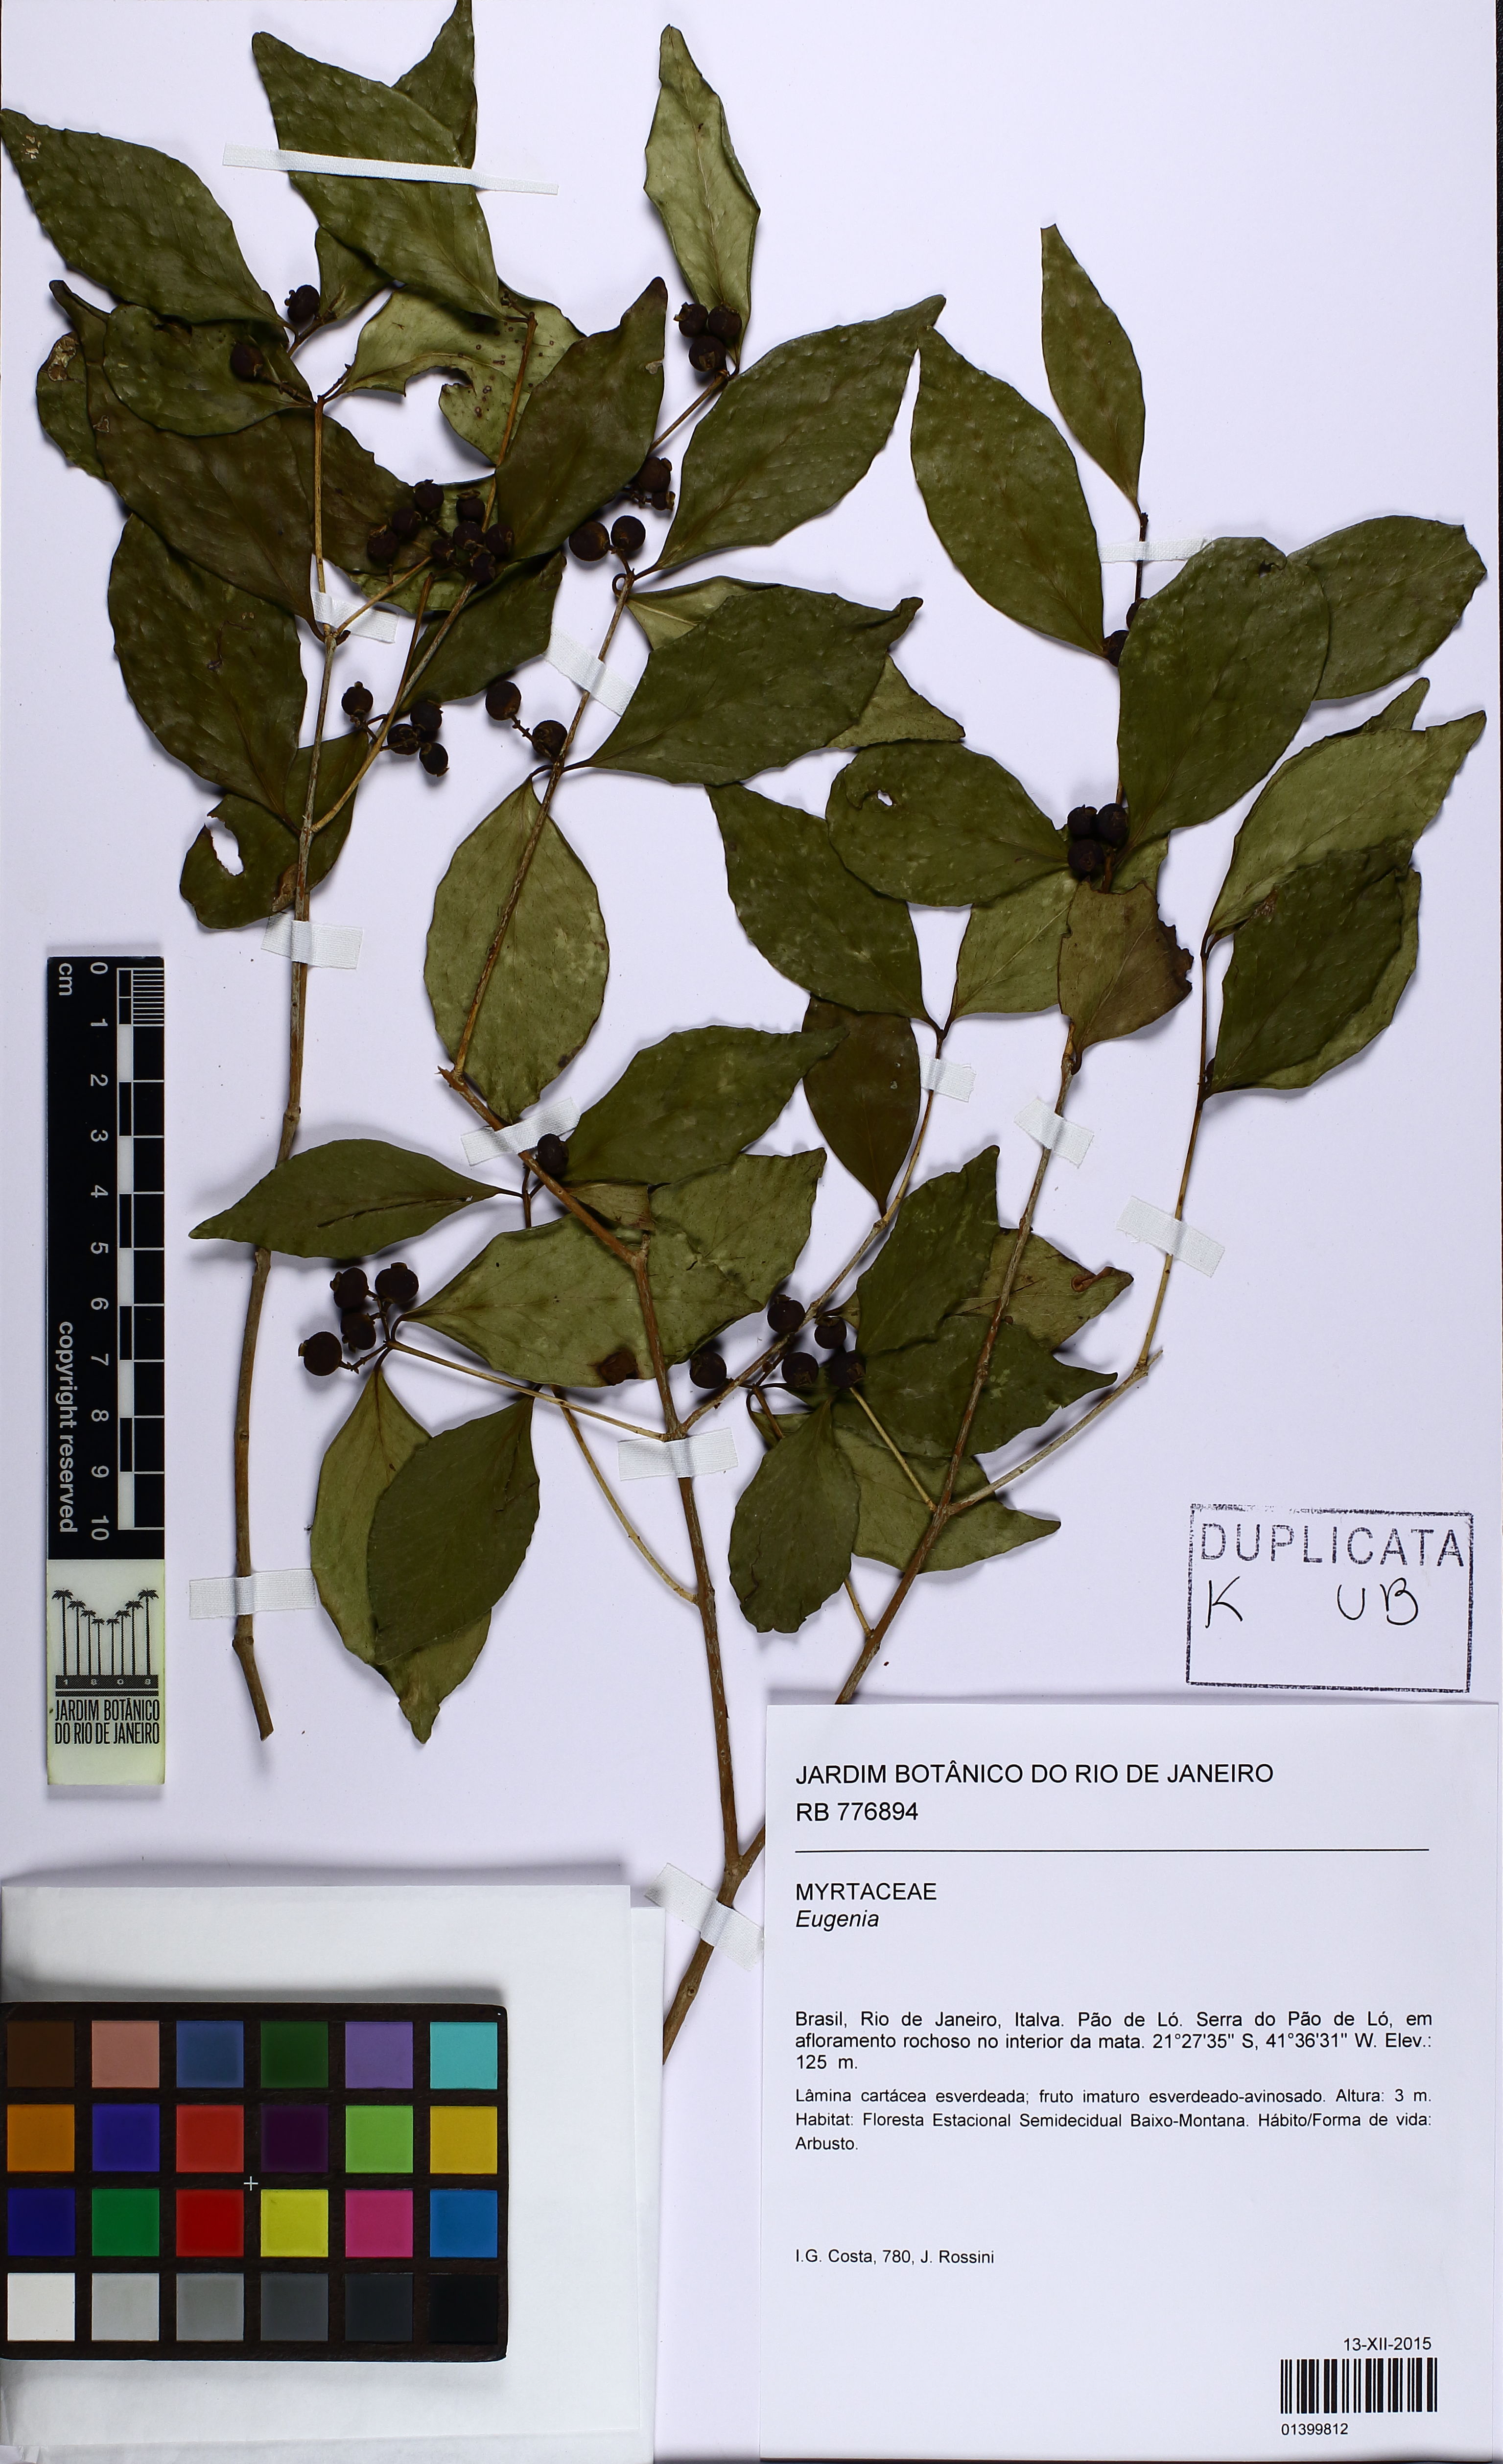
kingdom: Plantae
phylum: Tracheophyta
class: Magnoliopsida
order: Myrtales
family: Myrtaceae
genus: Eugenia
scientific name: Eugenia
